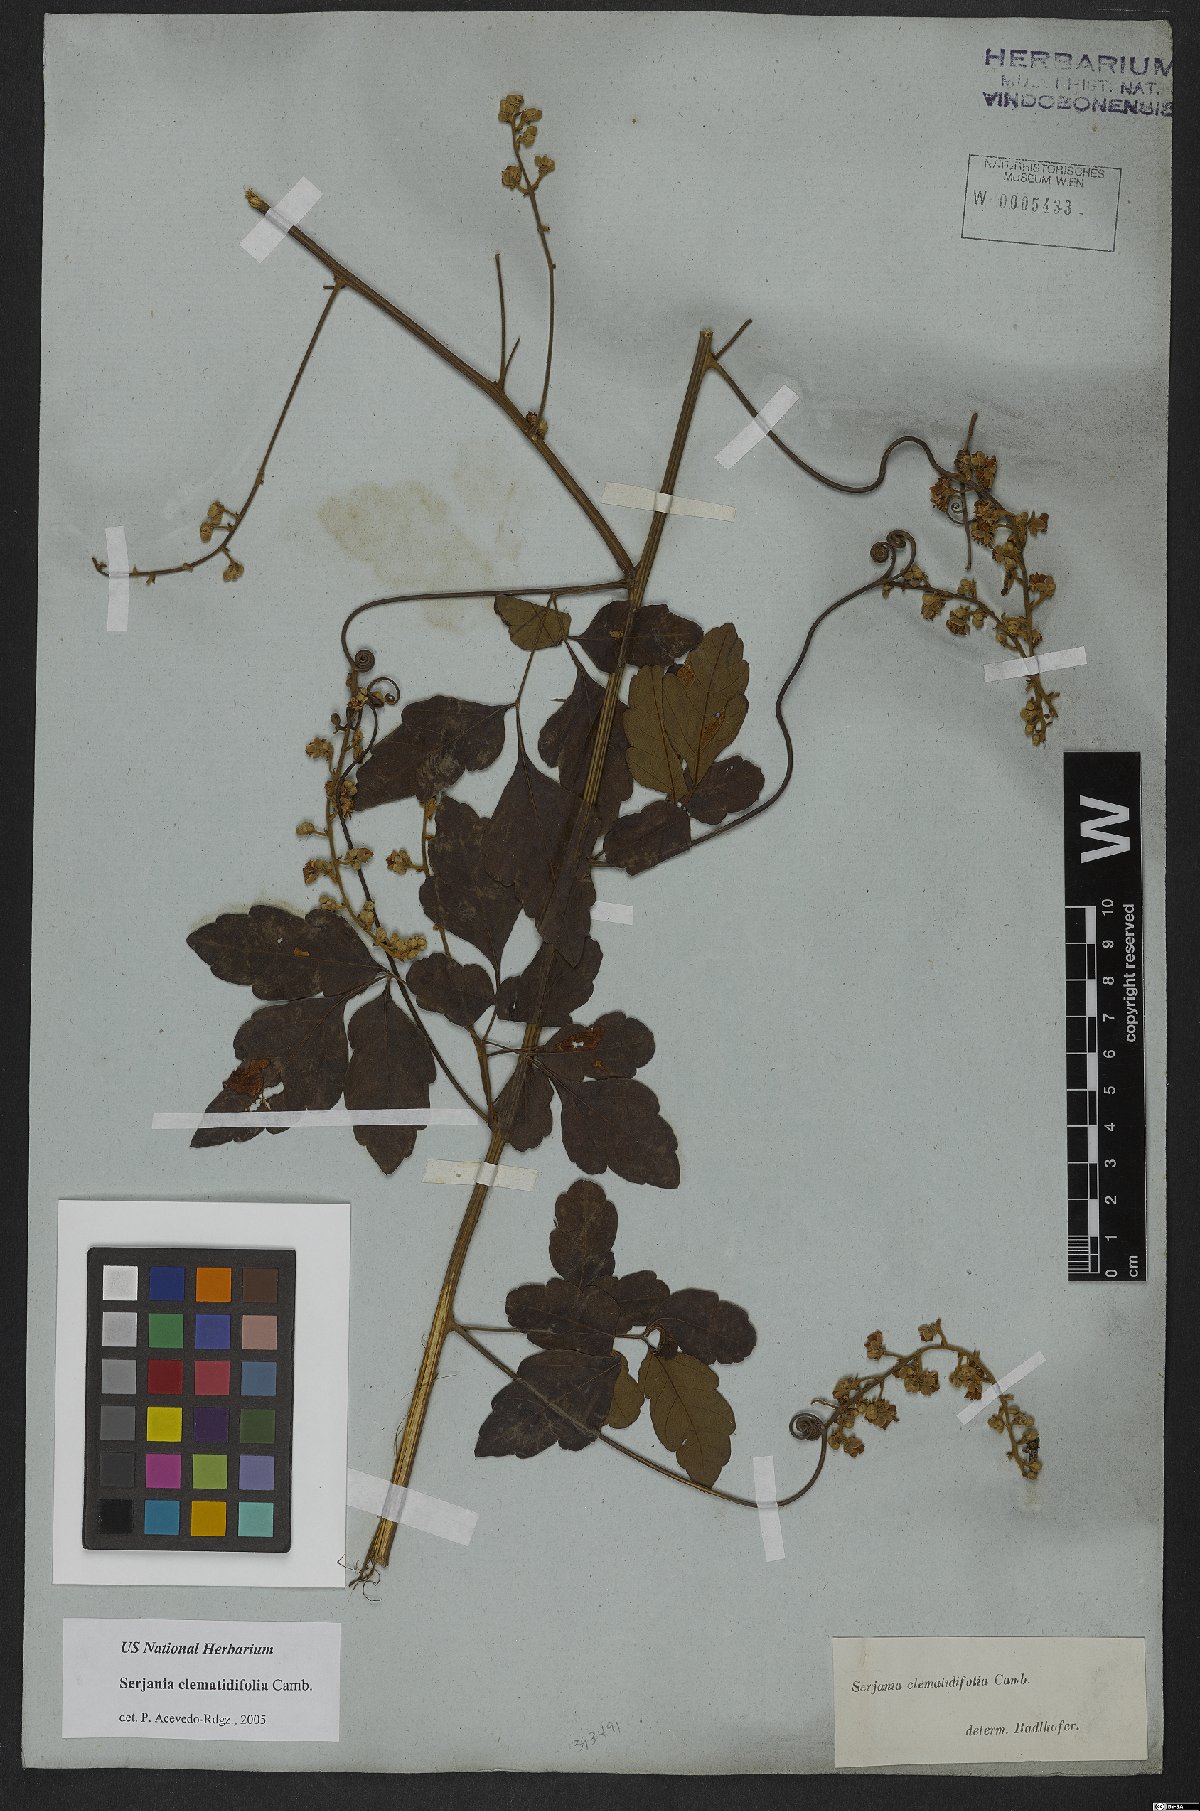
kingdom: Plantae
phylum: Tracheophyta
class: Magnoliopsida
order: Sapindales
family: Sapindaceae
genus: Serjania
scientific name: Serjania clematidifolia
